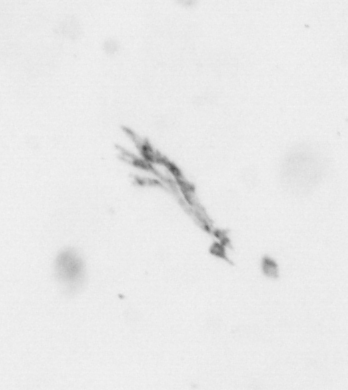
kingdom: Animalia
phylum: Arthropoda
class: Maxillopoda
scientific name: Maxillopoda
